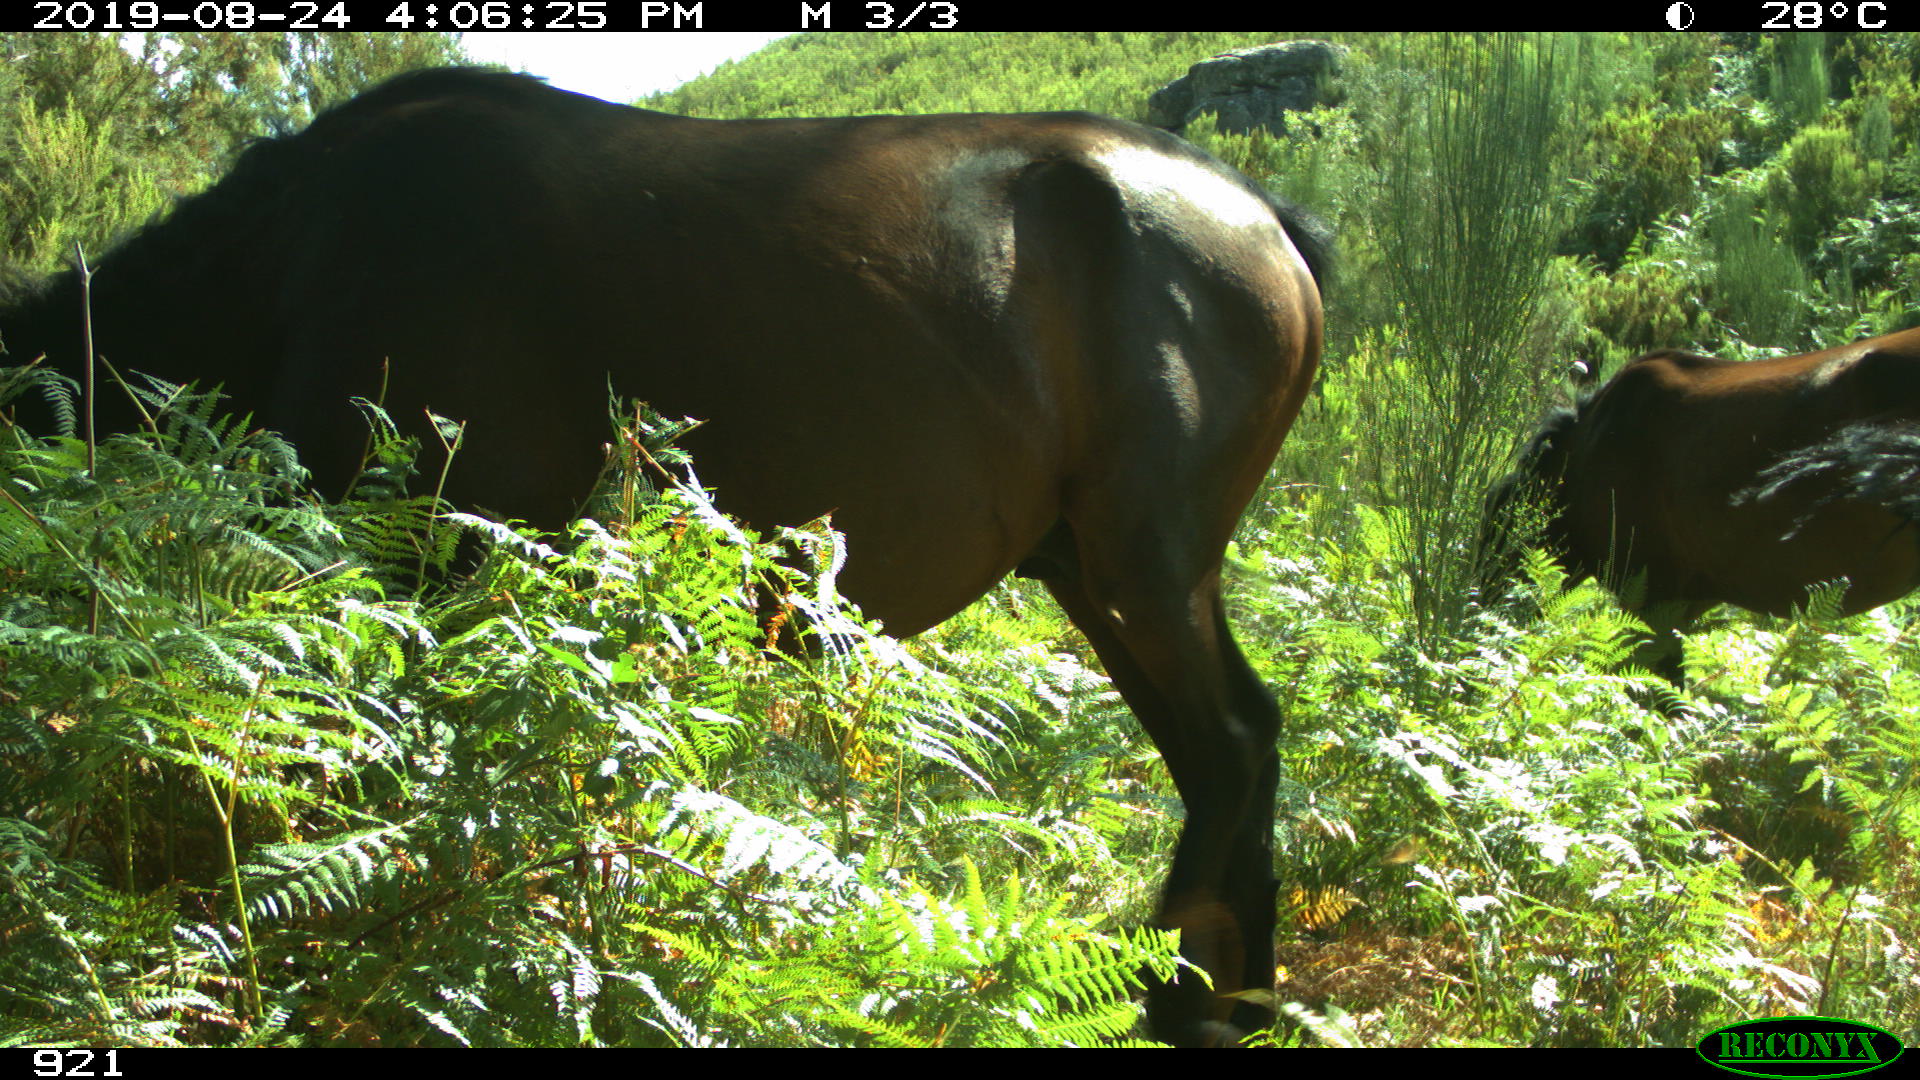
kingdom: Animalia
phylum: Chordata
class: Mammalia
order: Perissodactyla
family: Equidae
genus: Equus
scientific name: Equus caballus
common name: Horse
